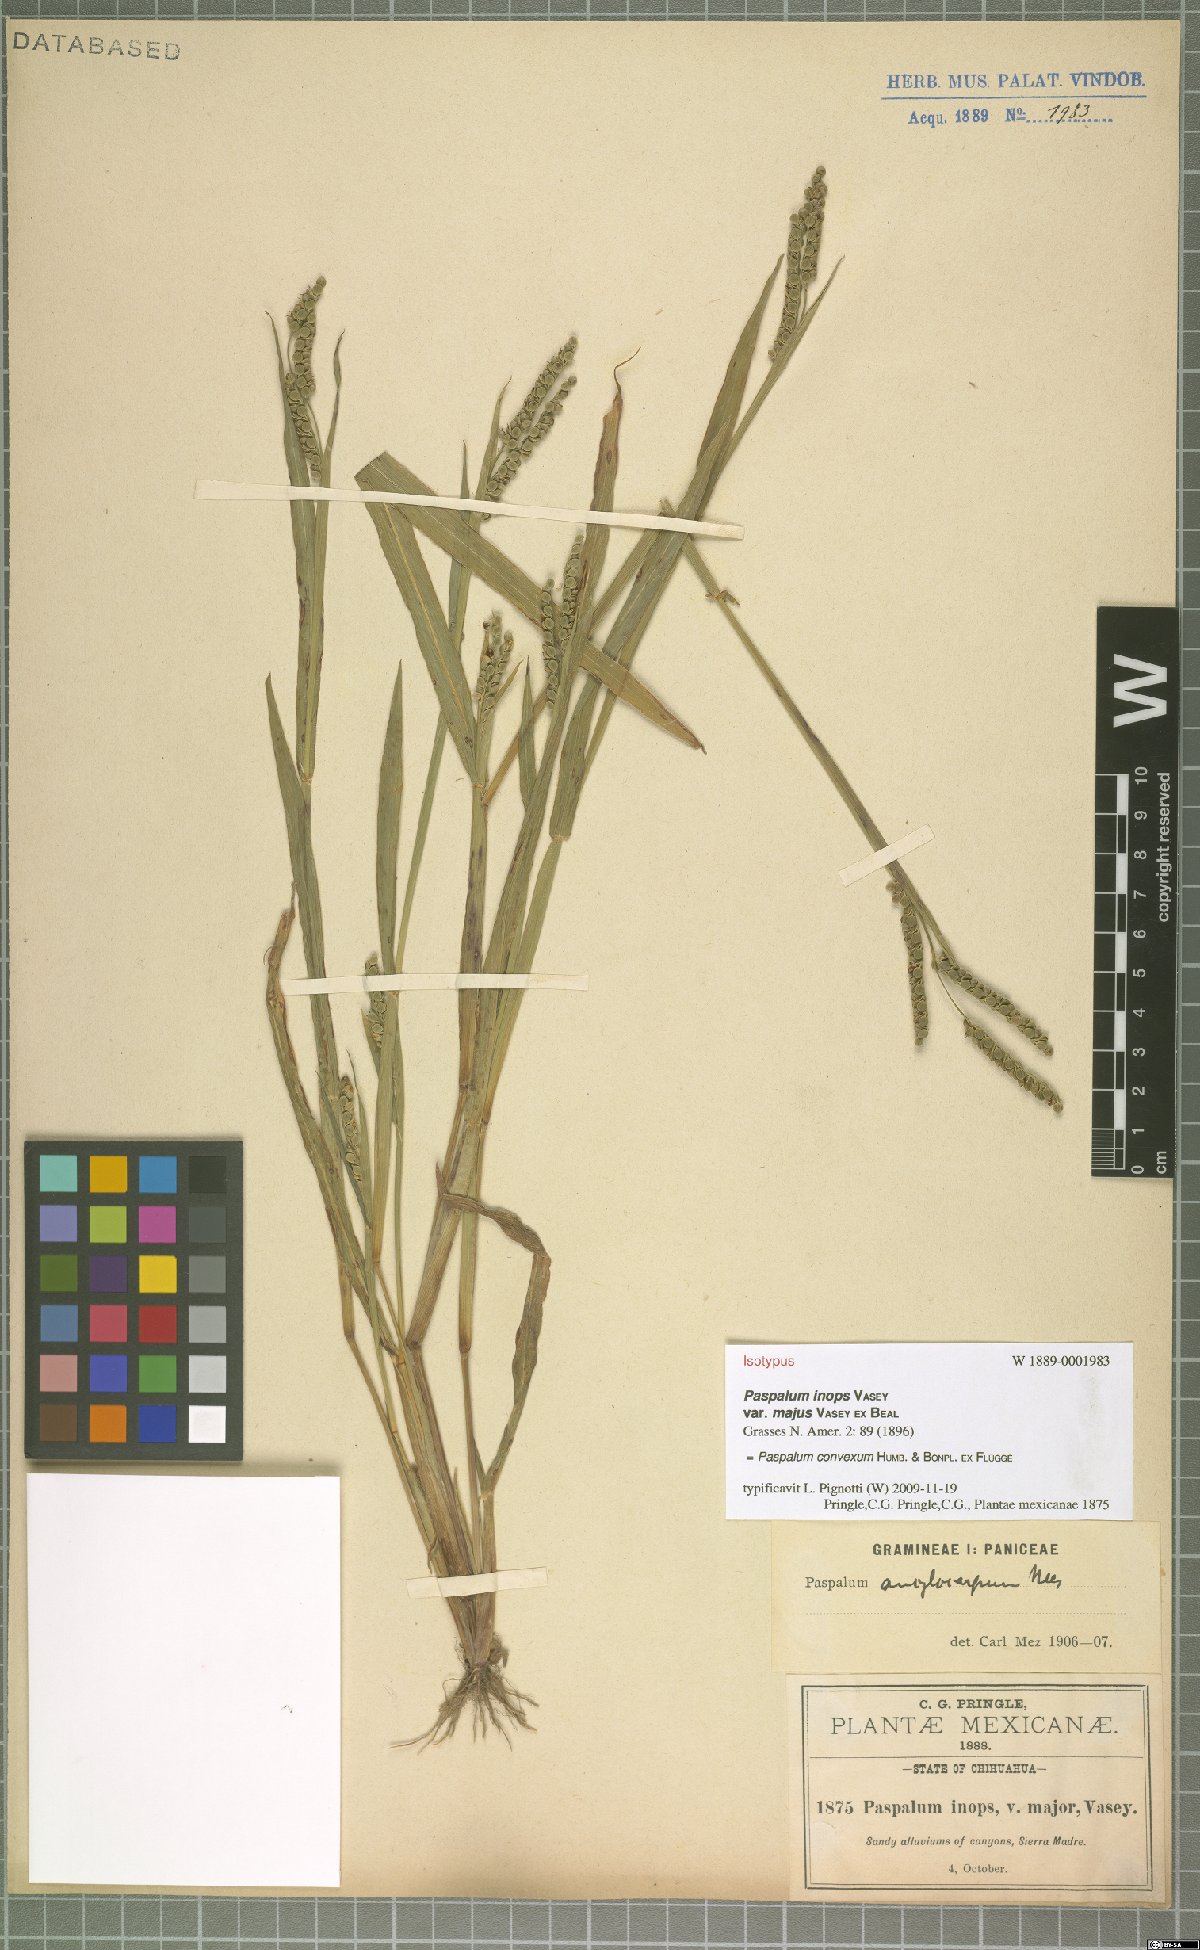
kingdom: Plantae
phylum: Tracheophyta
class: Liliopsida
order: Poales
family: Poaceae
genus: Paspalum
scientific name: Paspalum convexum
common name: Latin american crowngrass
